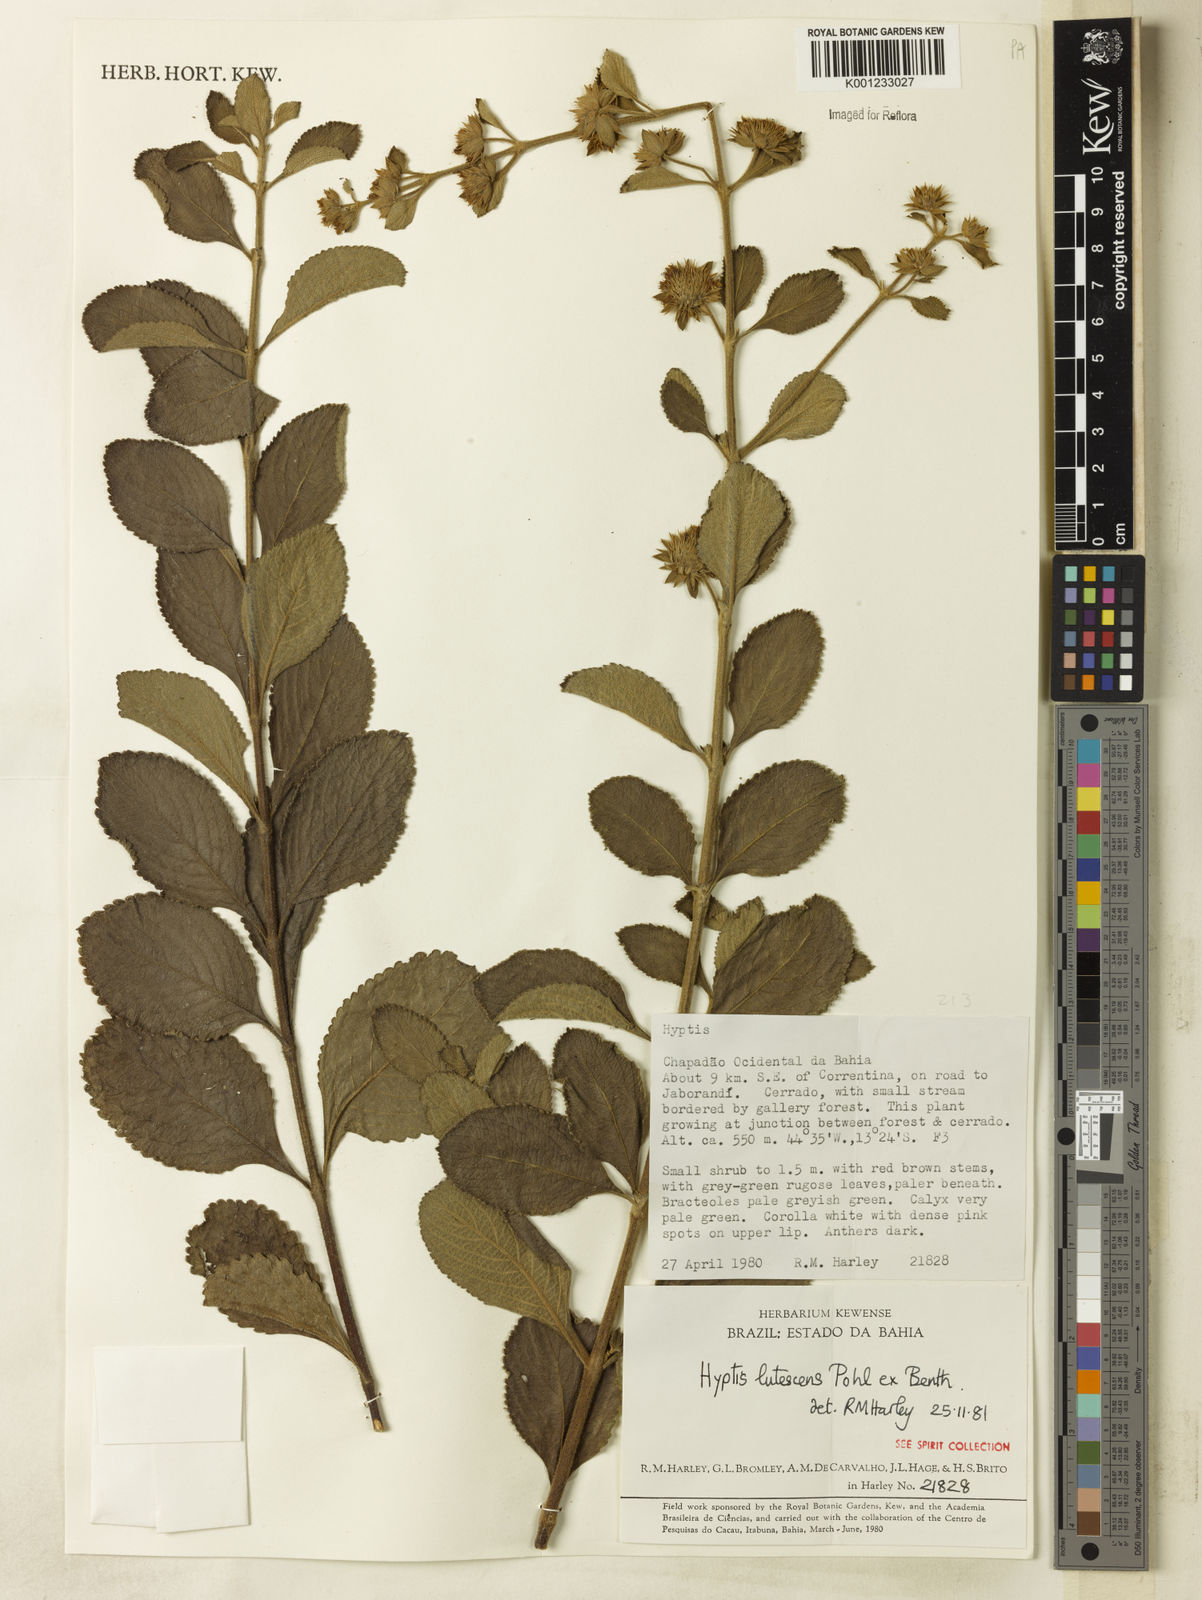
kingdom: Plantae
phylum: Tracheophyta
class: Magnoliopsida
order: Lamiales
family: Lamiaceae
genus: Hyptis
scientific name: Hyptis lutescens
